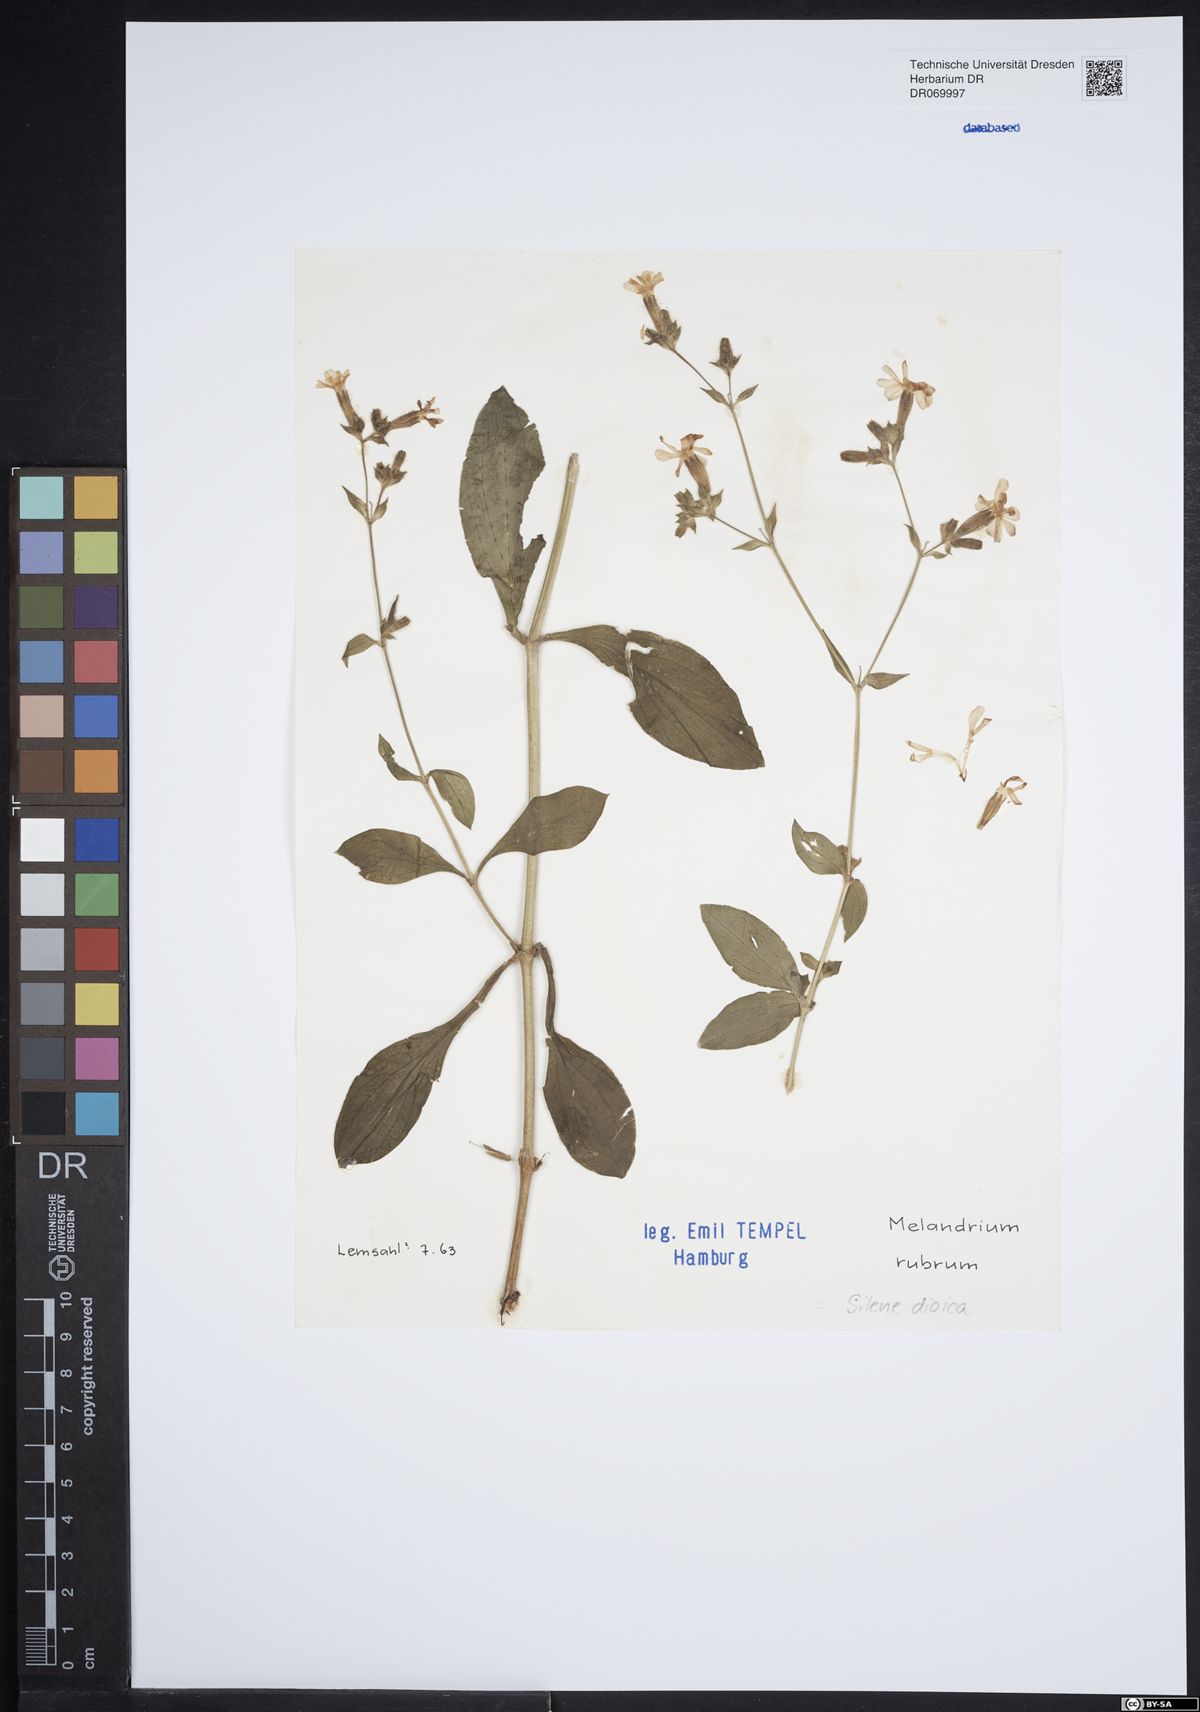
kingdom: Plantae
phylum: Tracheophyta
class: Magnoliopsida
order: Caryophyllales
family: Caryophyllaceae
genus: Silene
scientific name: Silene dioica
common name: Red campion
